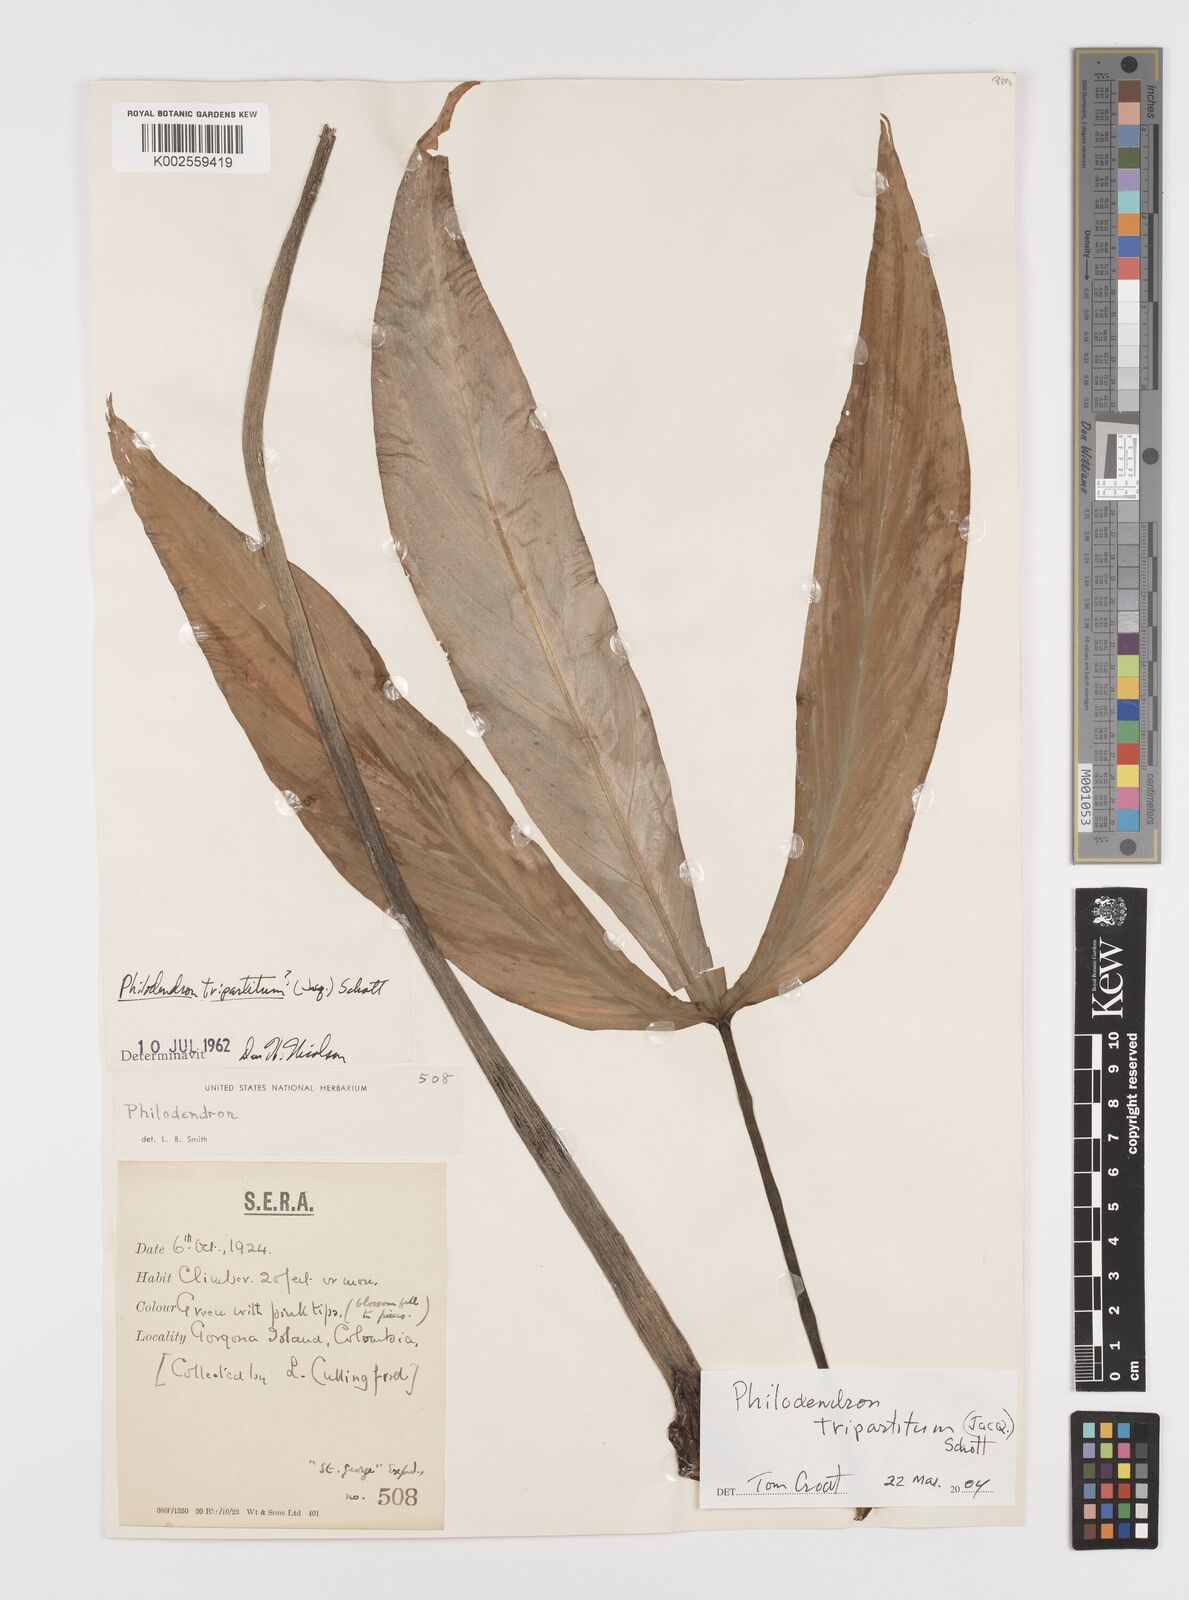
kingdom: Plantae
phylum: Tracheophyta
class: Liliopsida
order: Alismatales
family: Araceae
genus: Philodendron
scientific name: Philodendron tripartitum
